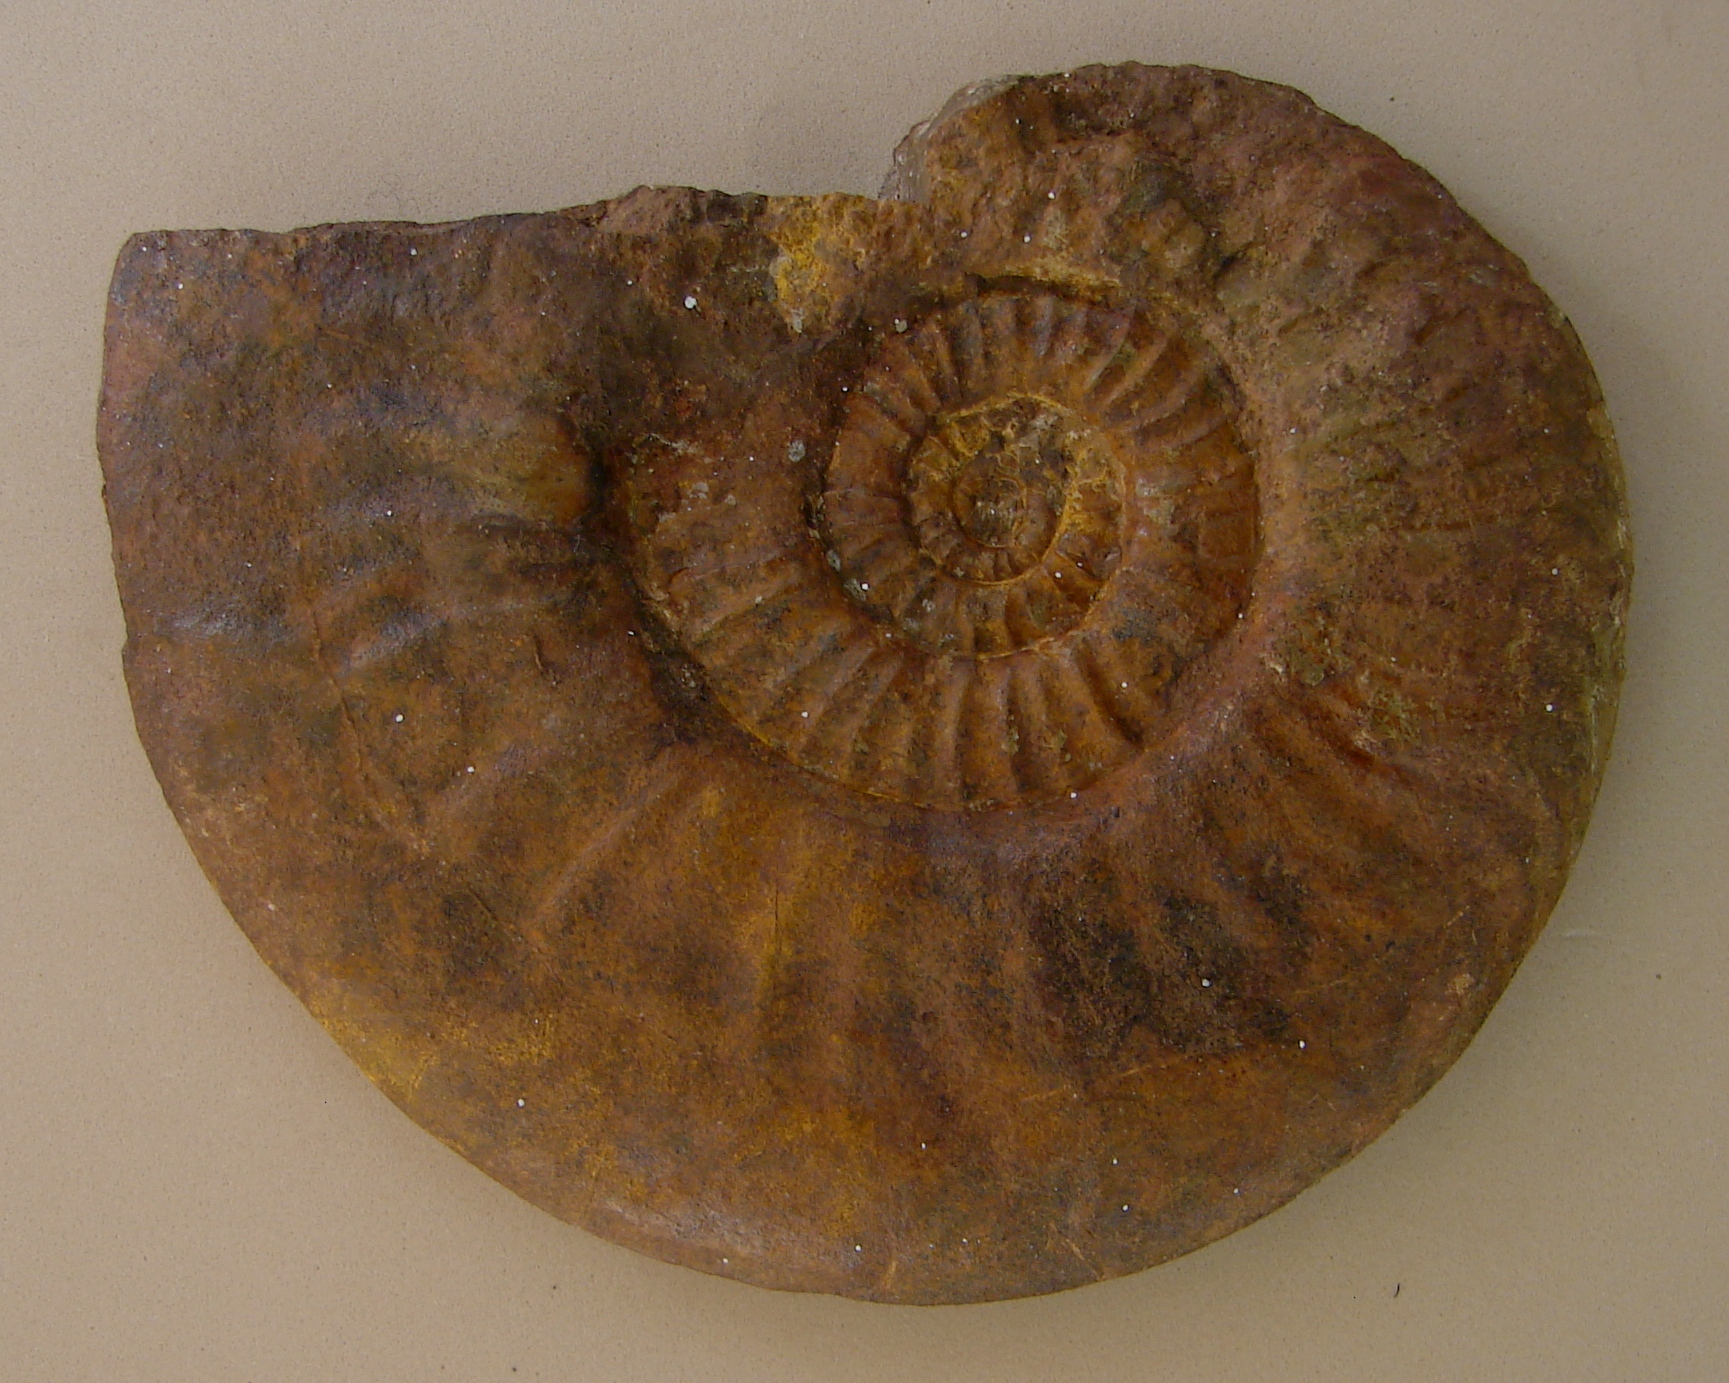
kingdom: Animalia
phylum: Mollusca
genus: Walkericeras
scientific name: Walkericeras
